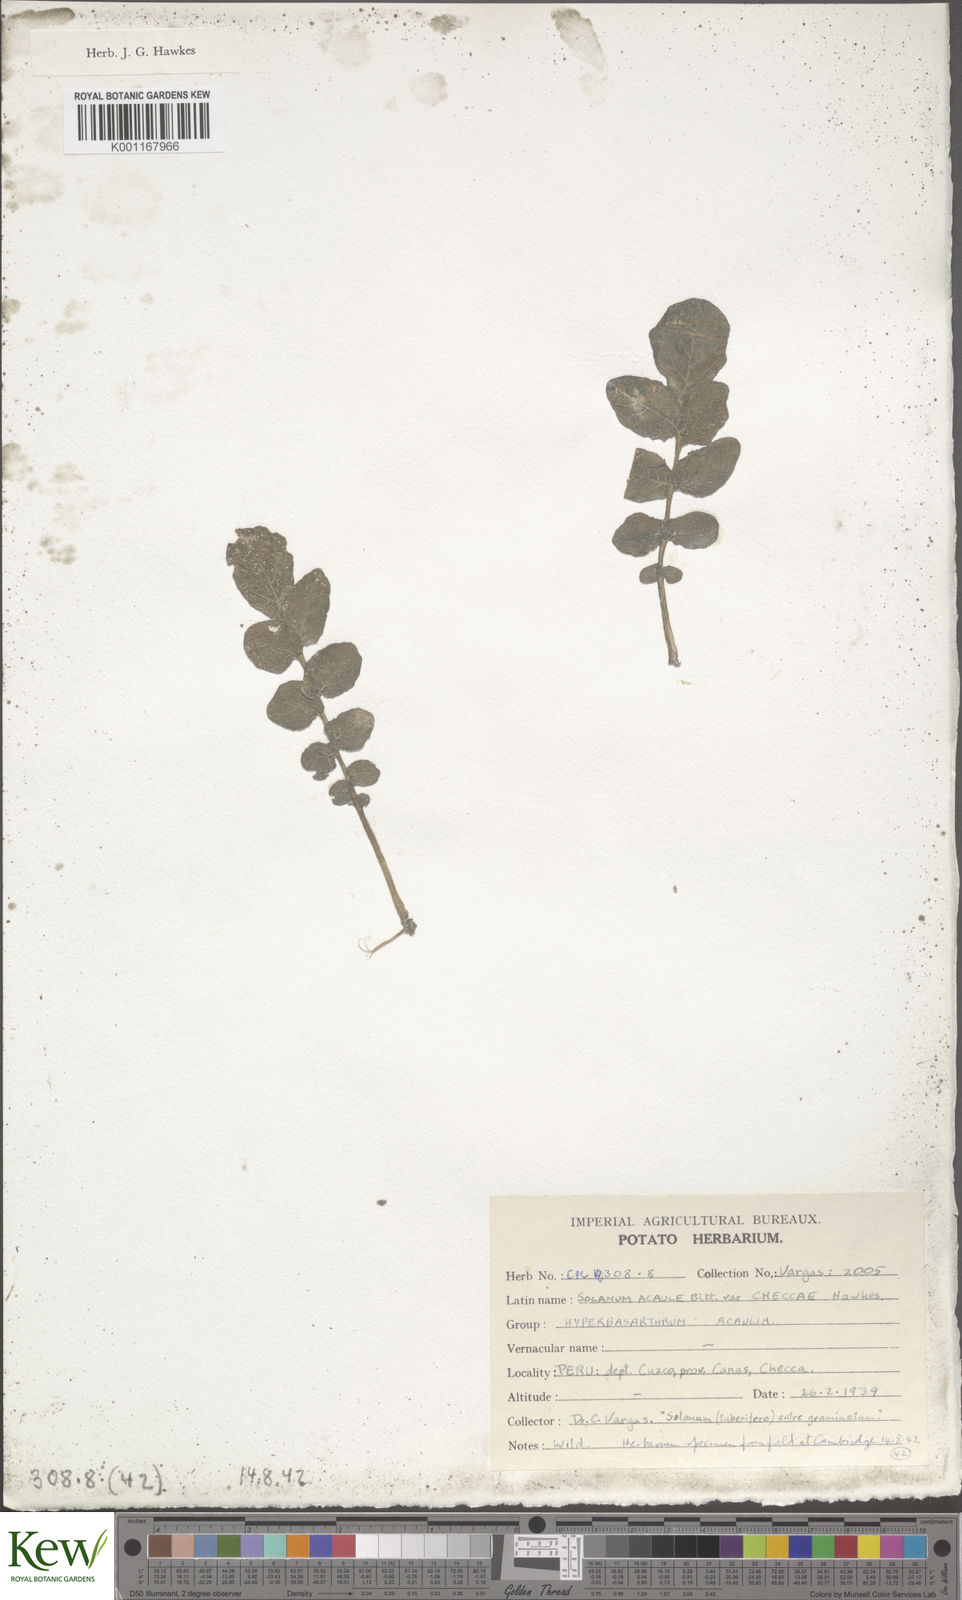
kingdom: Plantae
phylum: Tracheophyta
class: Magnoliopsida
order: Solanales
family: Solanaceae
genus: Solanum
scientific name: Solanum acaule
